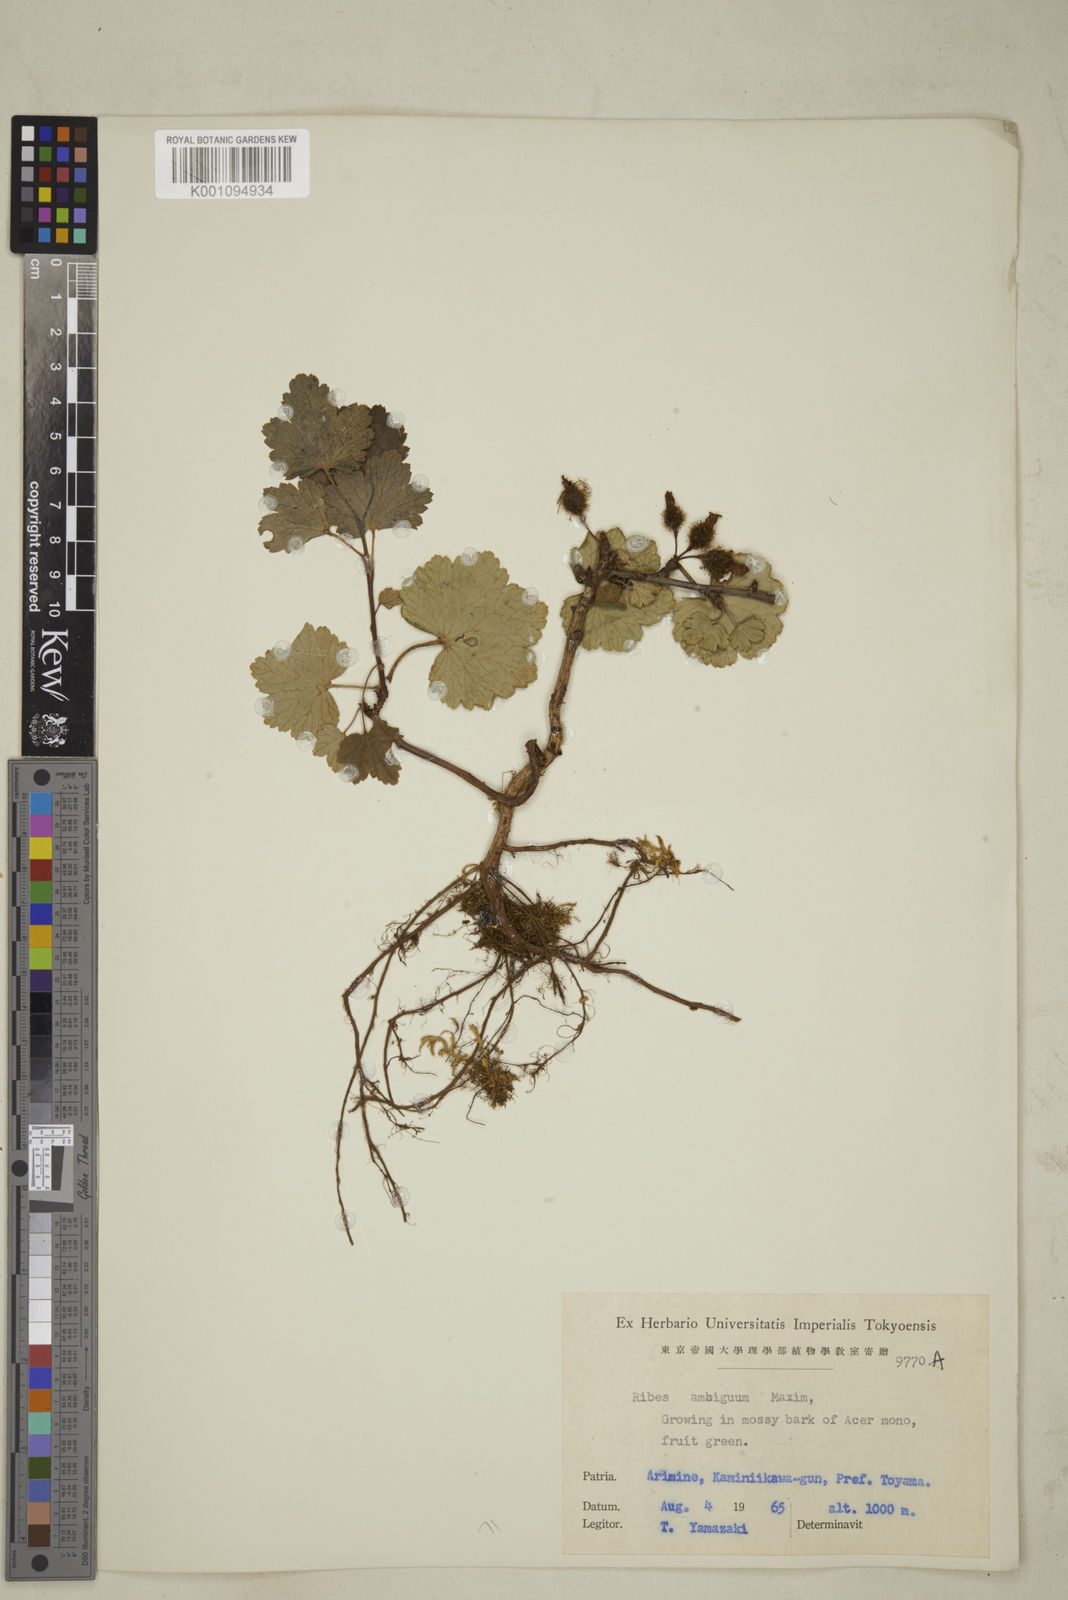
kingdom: Plantae
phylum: Tracheophyta
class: Magnoliopsida
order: Saxifragales
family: Grossulariaceae
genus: Ribes
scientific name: Ribes ambiguum
